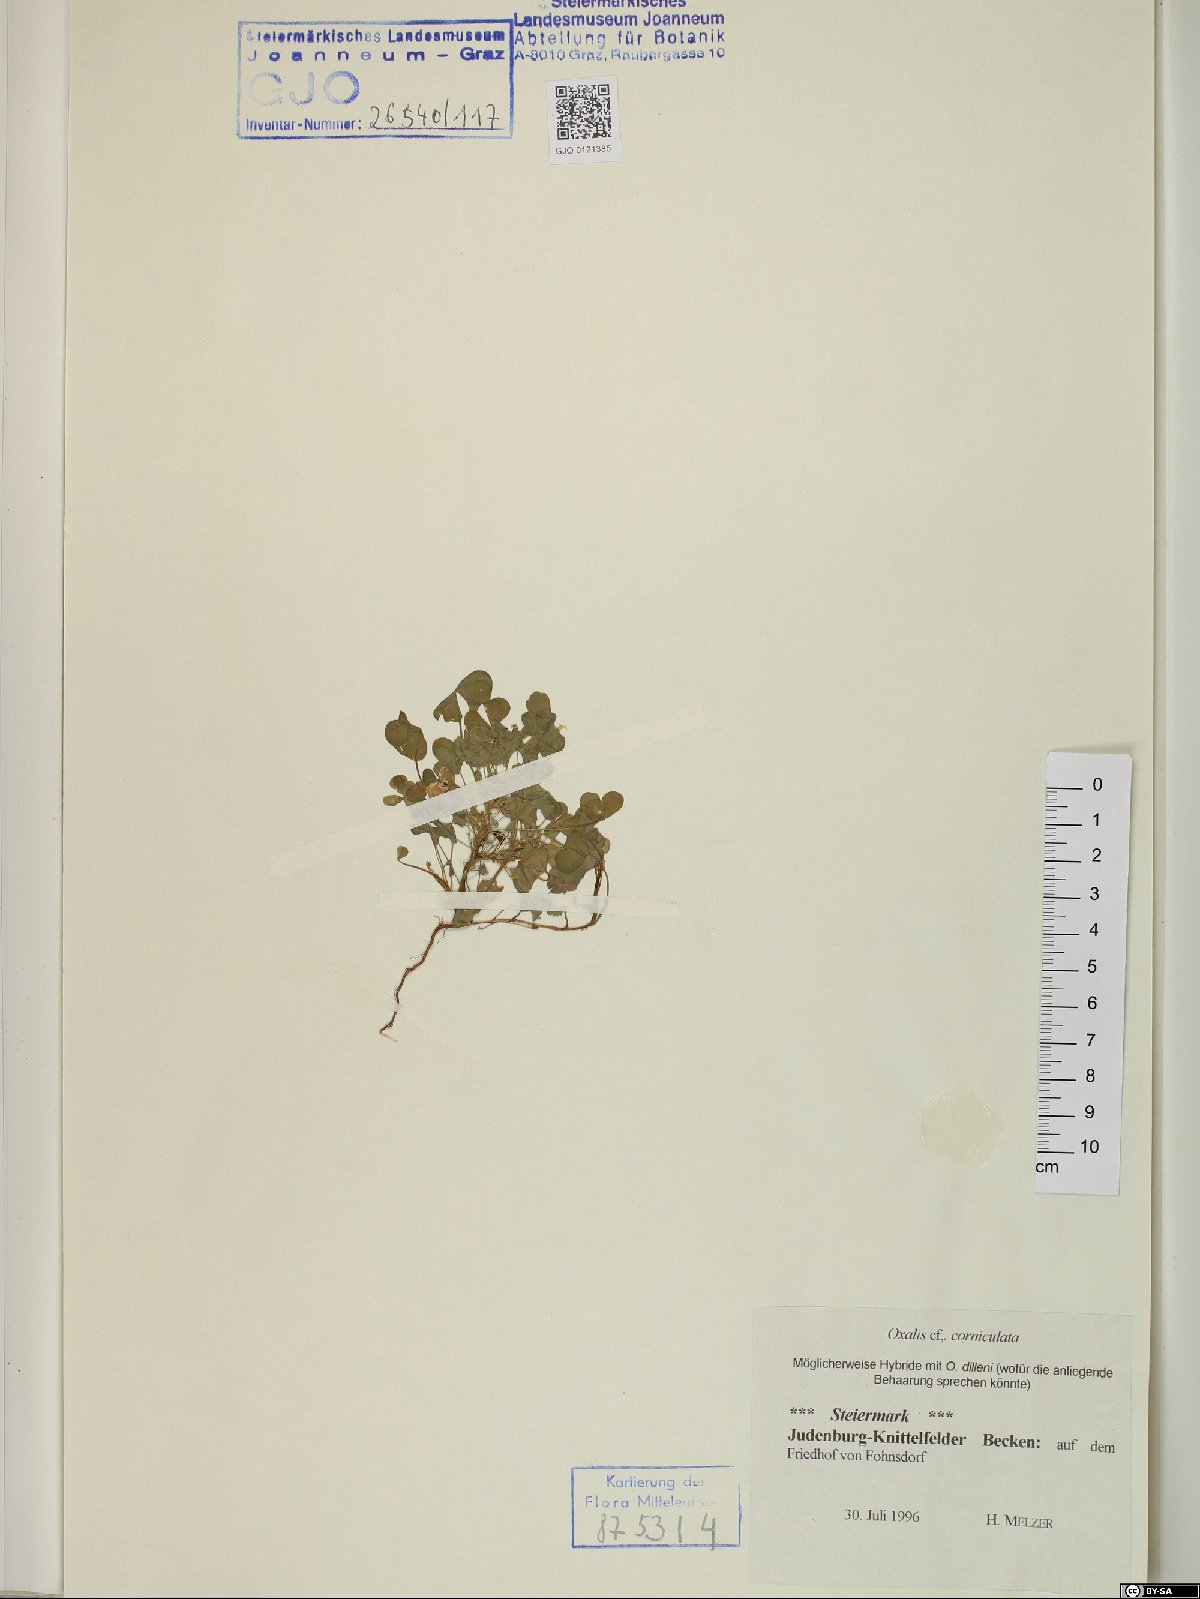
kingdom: Plantae
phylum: Tracheophyta
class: Magnoliopsida
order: Oxalidales
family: Oxalidaceae
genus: Oxalis
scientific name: Oxalis corniculata
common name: Procumbent yellow-sorrel
